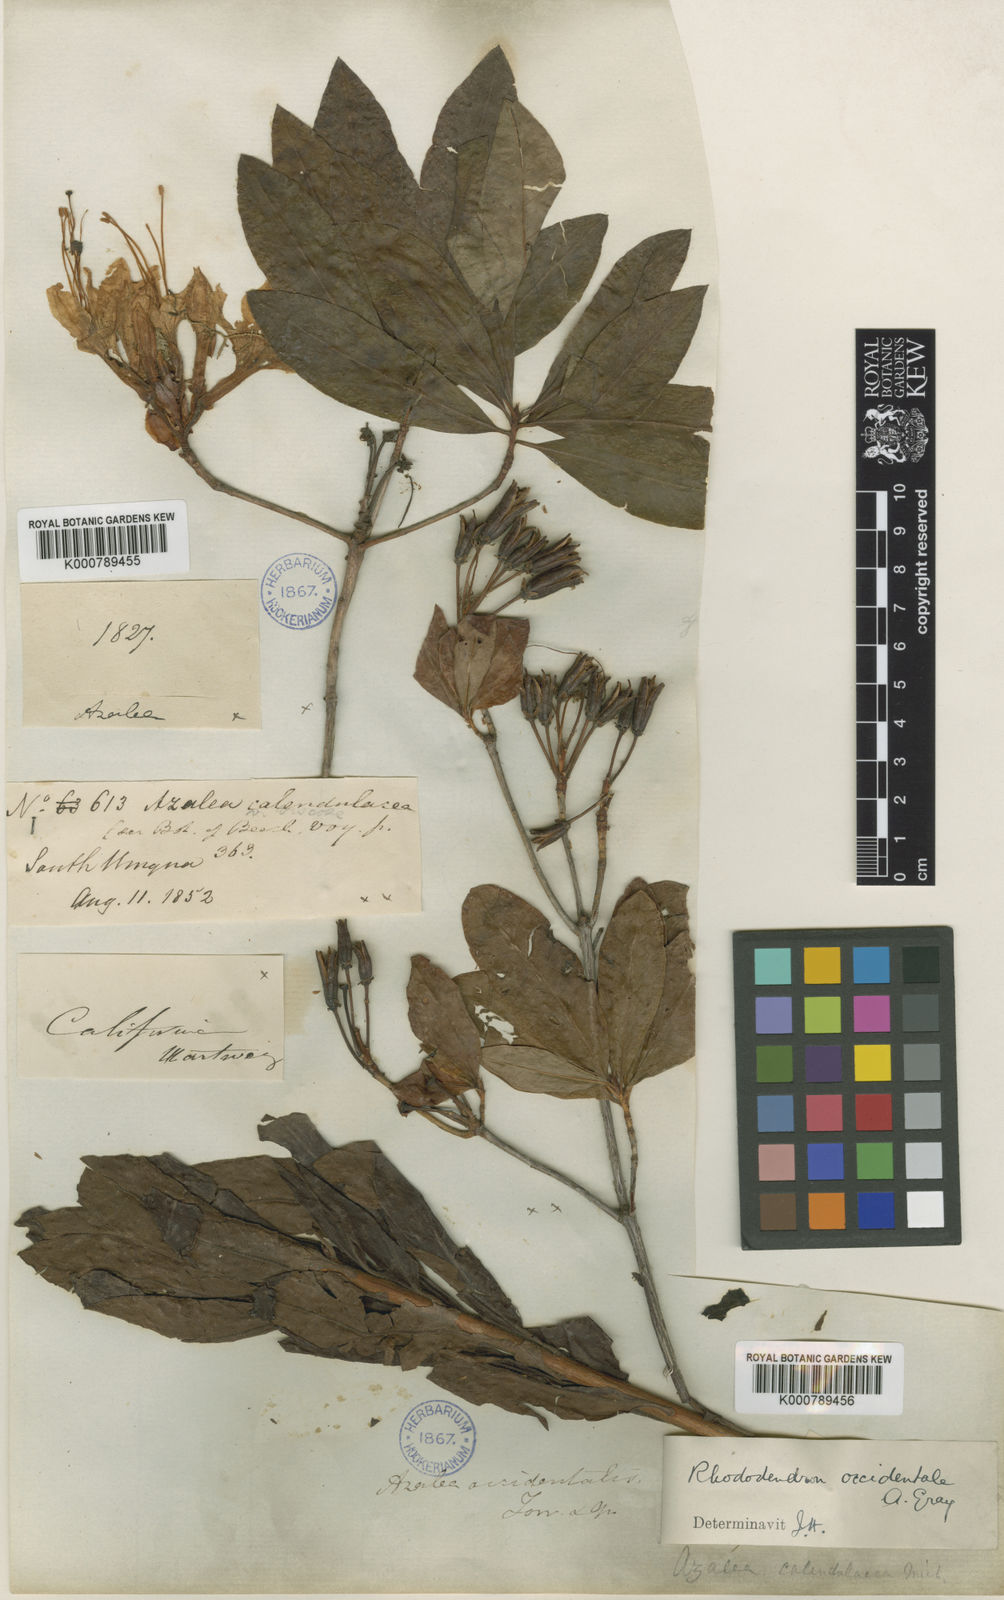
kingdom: Plantae
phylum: Tracheophyta
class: Magnoliopsida
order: Ericales
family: Ericaceae
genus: Rhododendron
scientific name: Rhododendron
